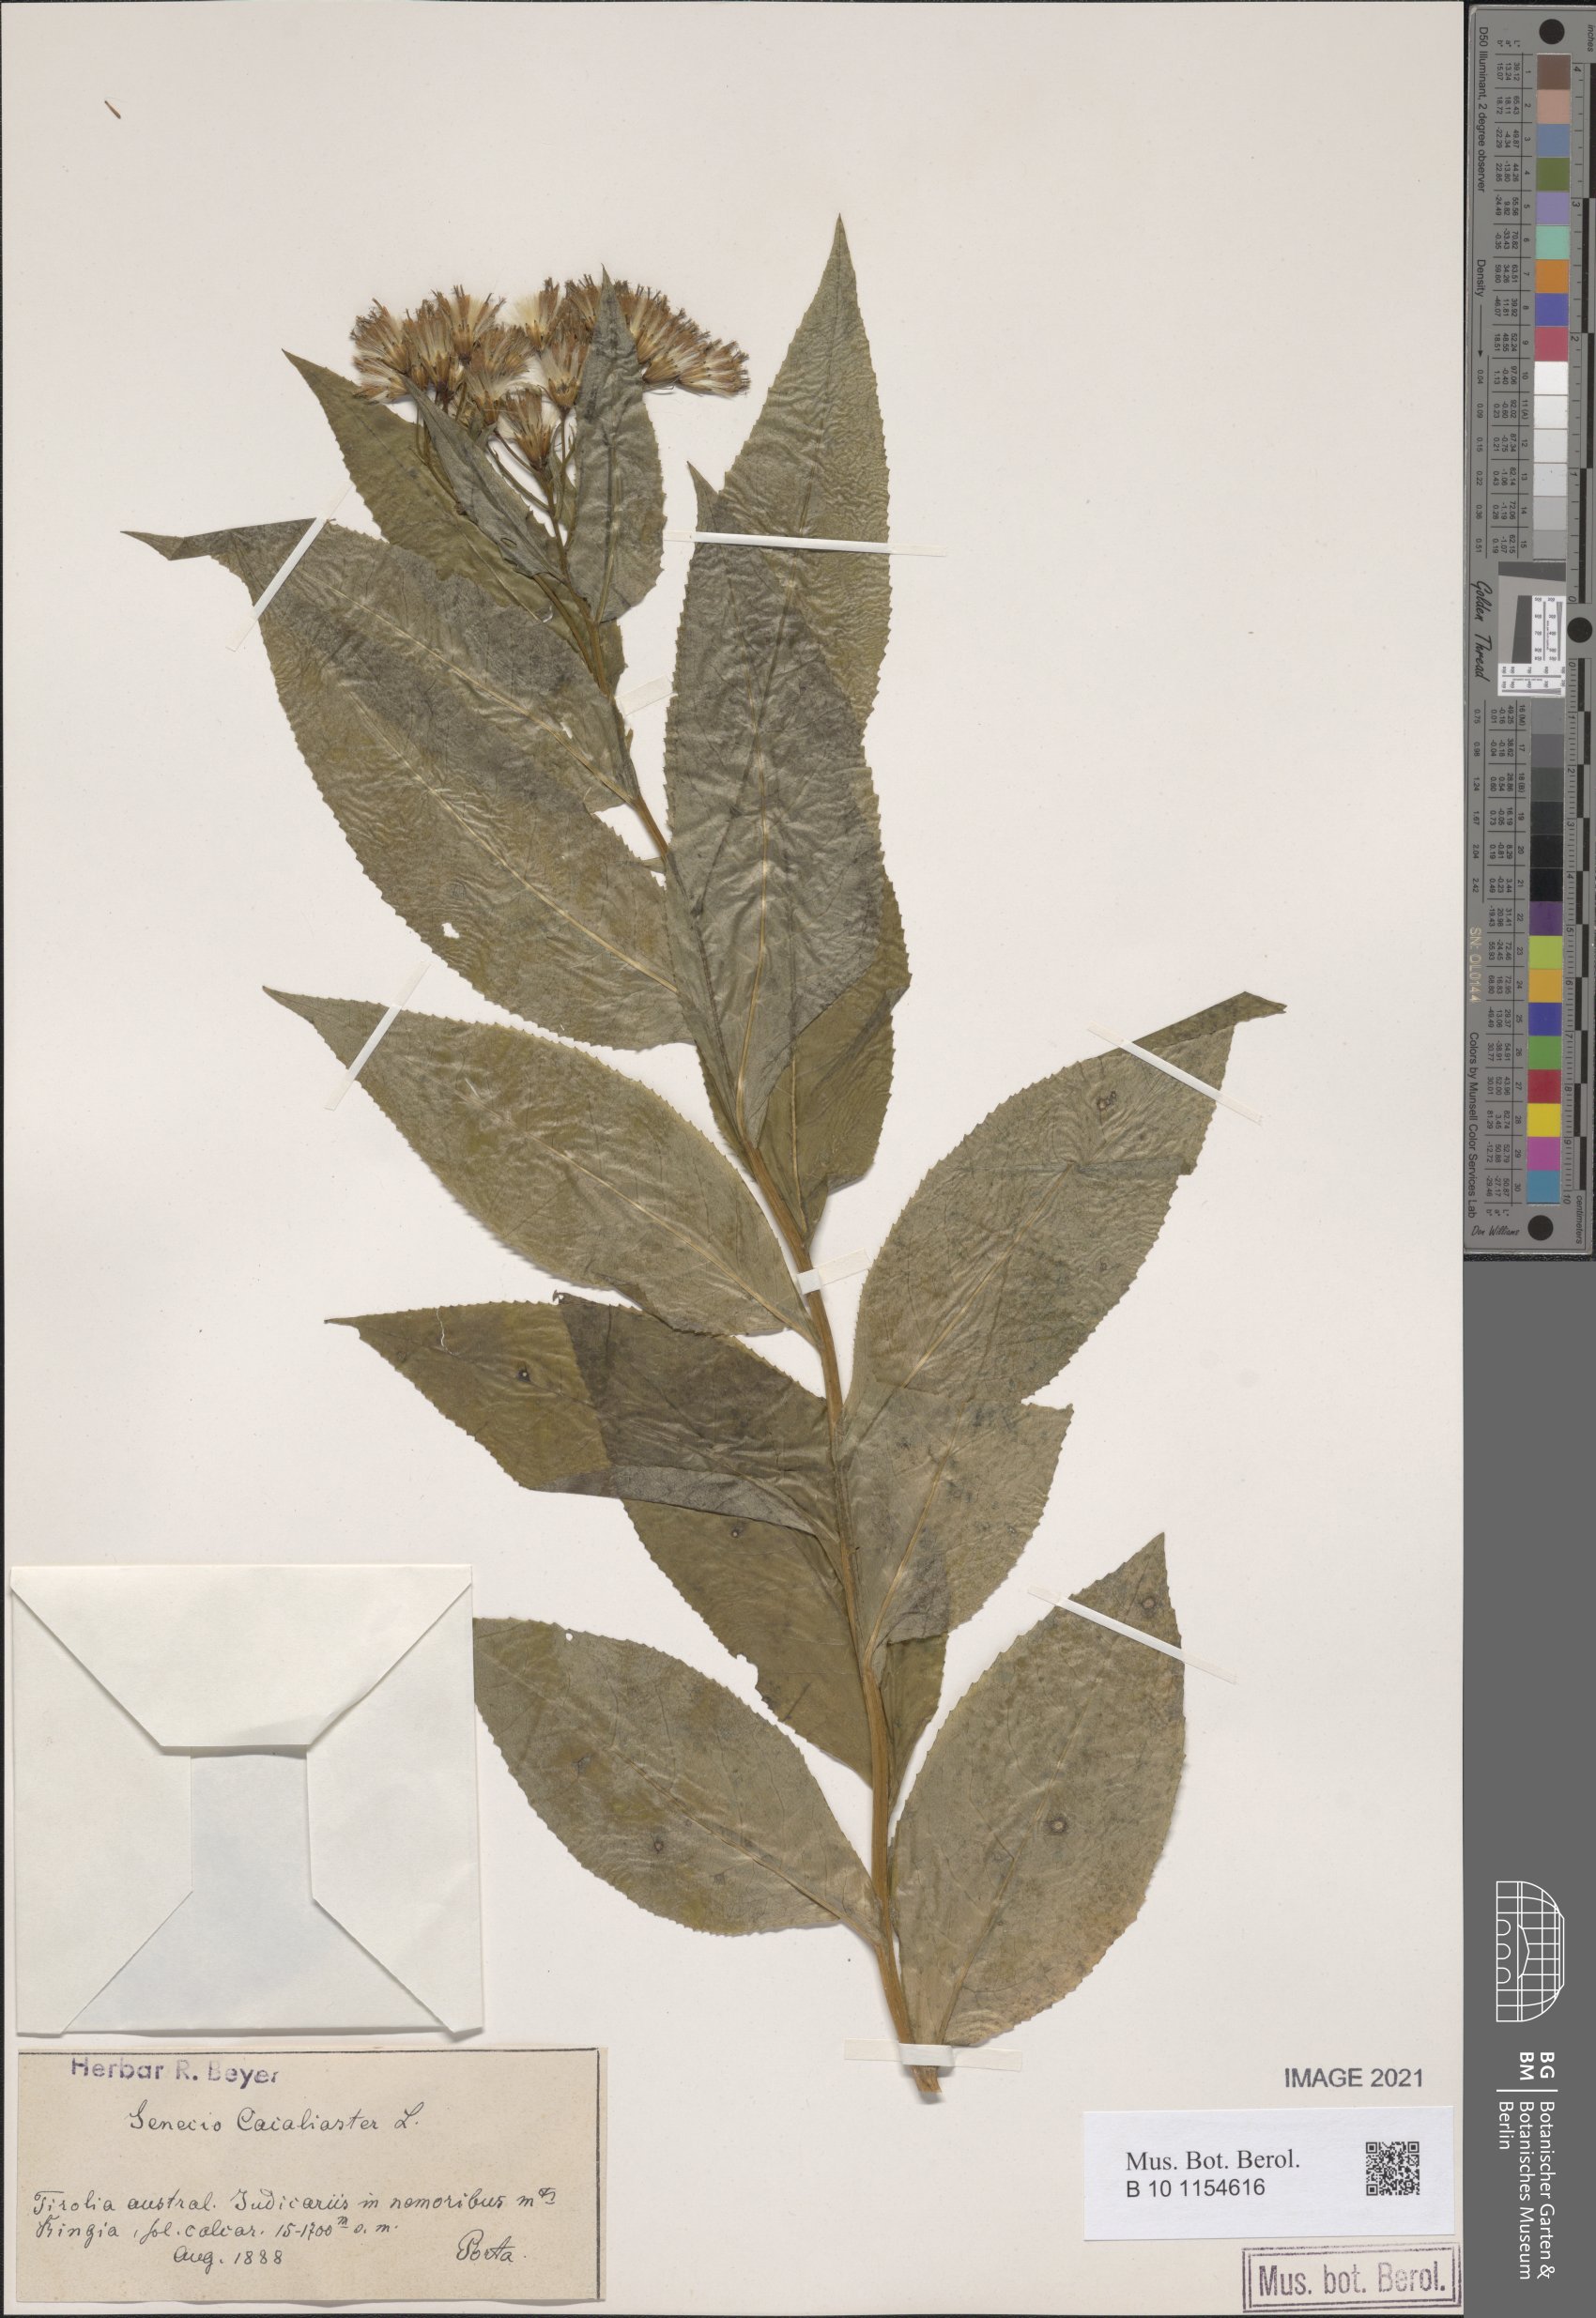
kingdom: Plantae
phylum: Tracheophyta
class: Magnoliopsida
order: Asterales
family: Asteraceae
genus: Senecio
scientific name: Senecio cacaliaster
